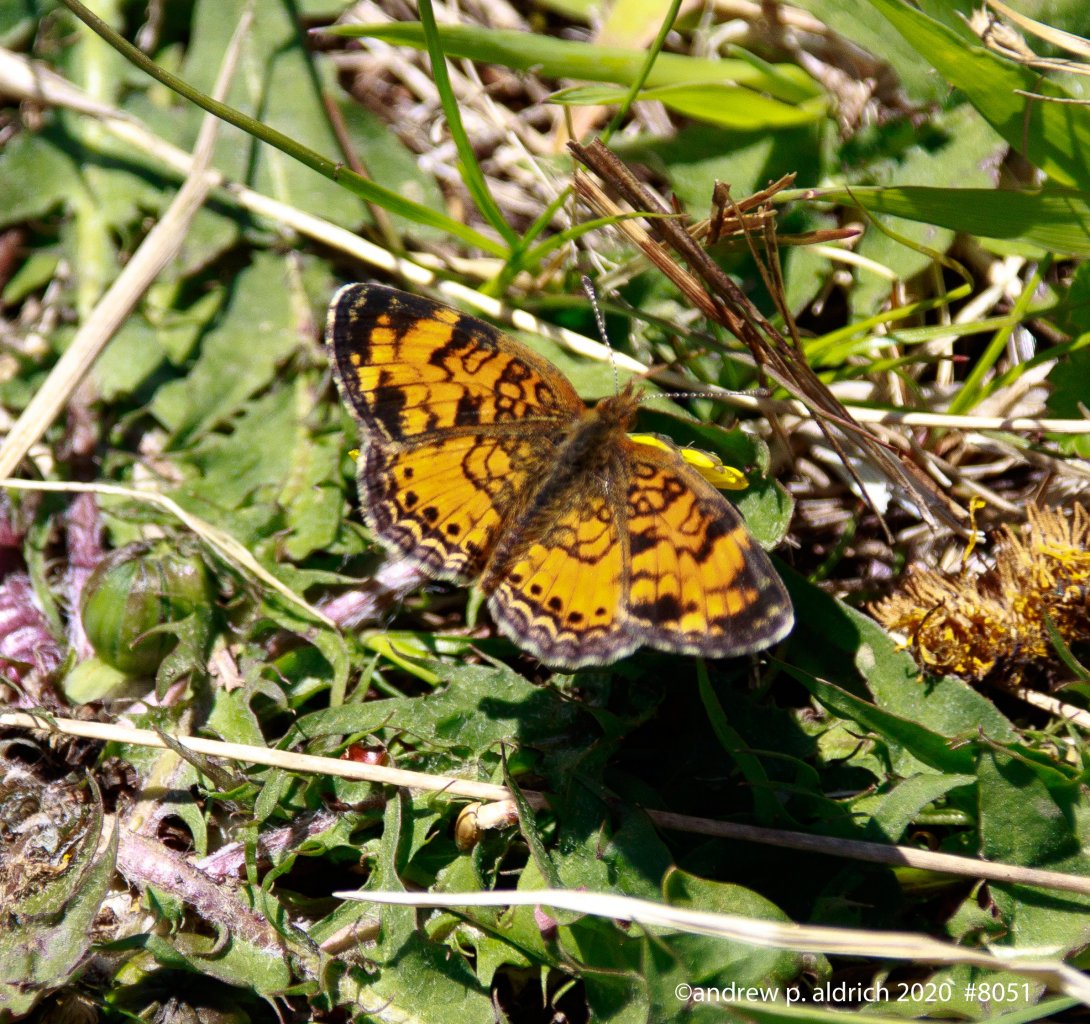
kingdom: Animalia
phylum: Arthropoda
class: Insecta
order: Lepidoptera
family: Nymphalidae
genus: Phyciodes
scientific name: Phyciodes tharos
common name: Northern Crescent
